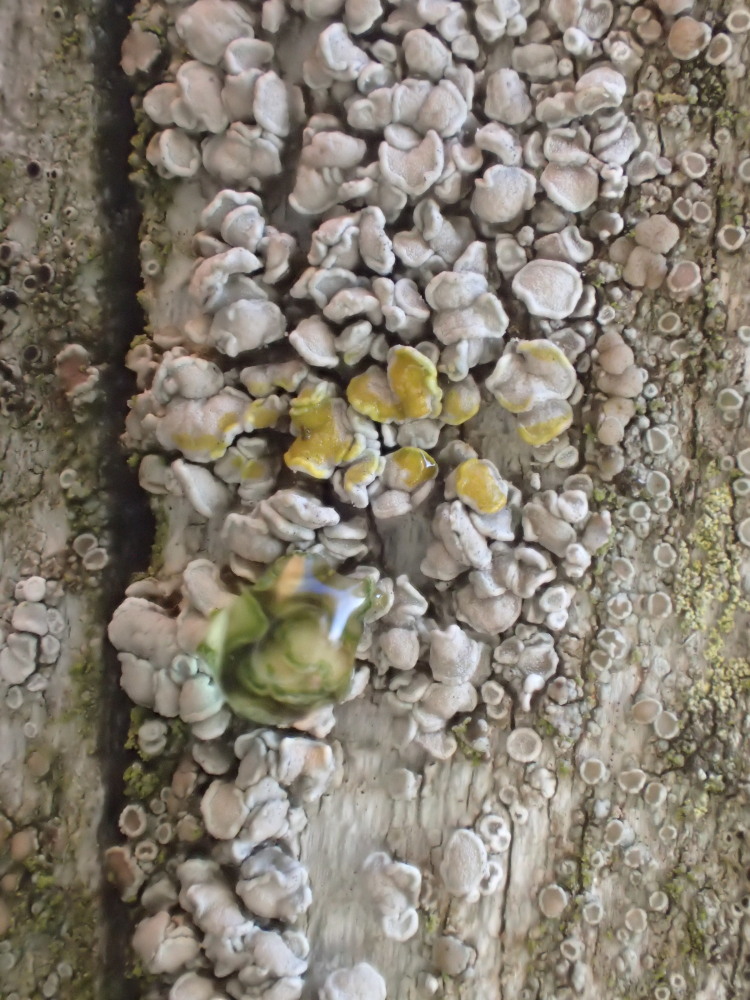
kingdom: Fungi
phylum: Ascomycota
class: Lecanoromycetes
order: Lecanorales
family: Lecanoraceae
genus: Glaucomaria
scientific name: Glaucomaria carpinea
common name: hviddugget kantskivelav
